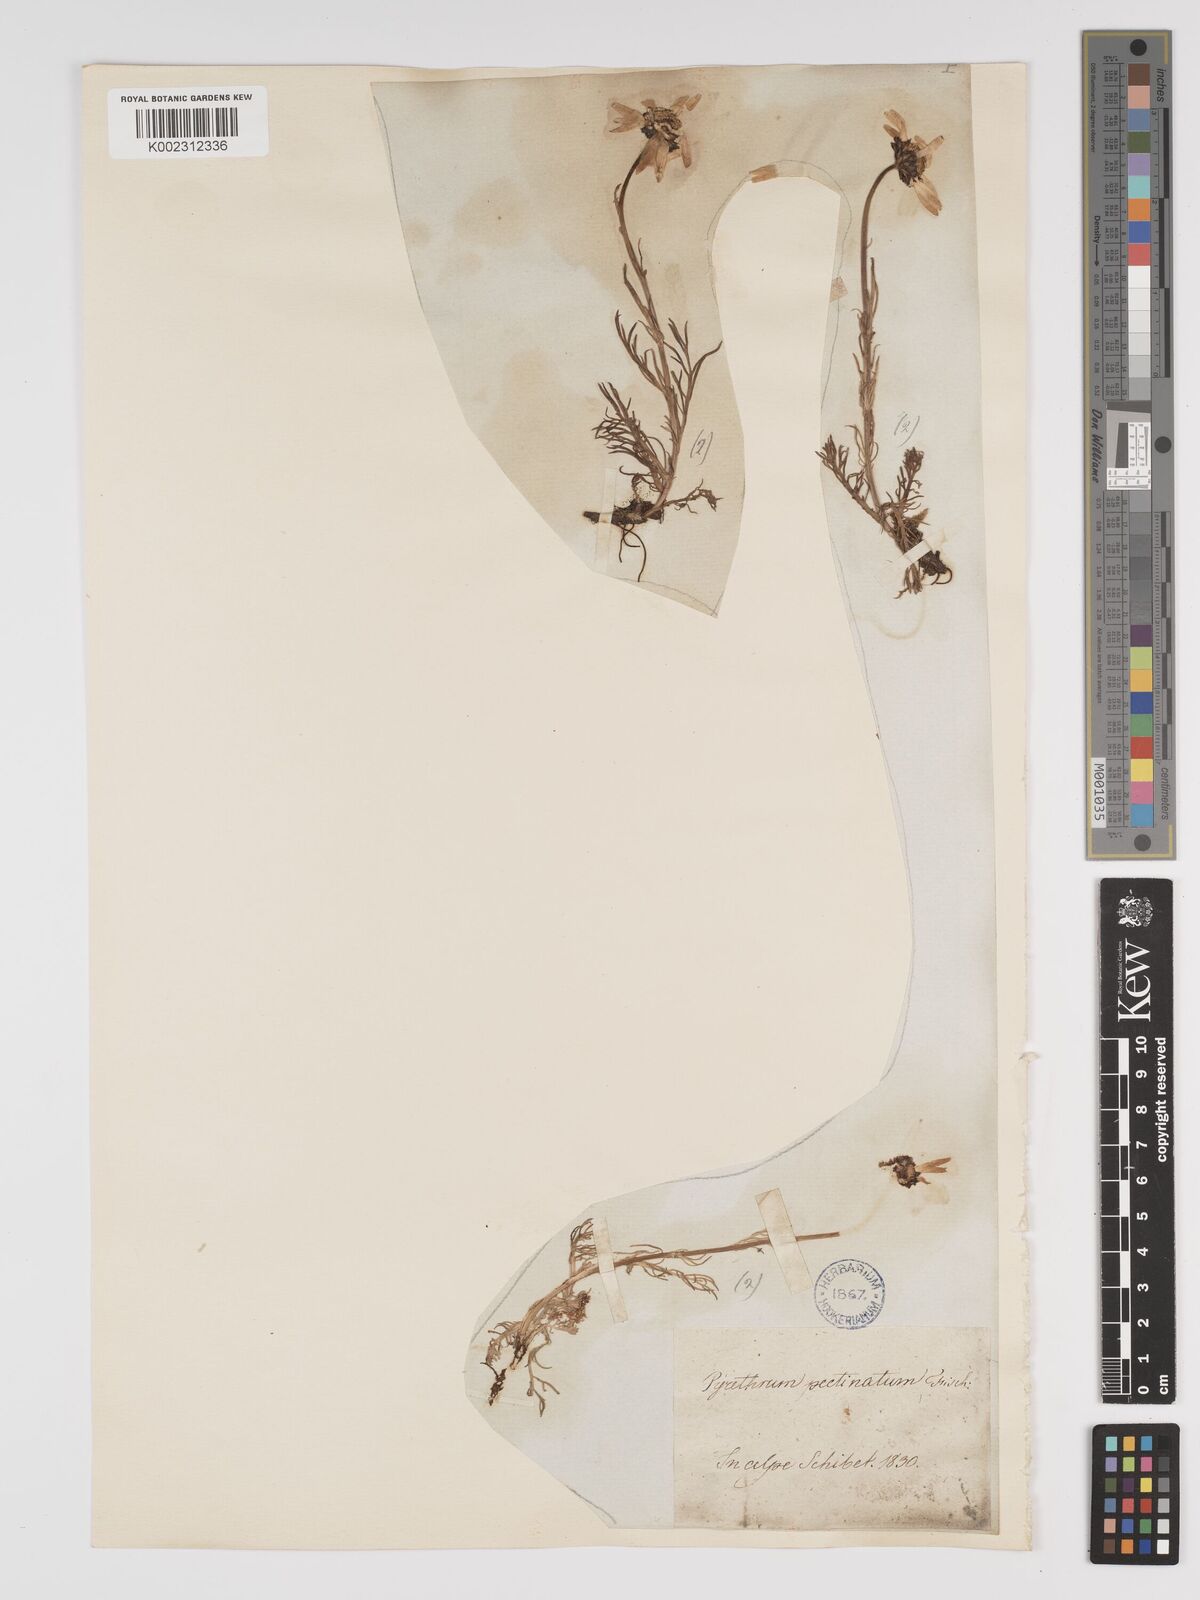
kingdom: Plantae
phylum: Tracheophyta
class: Magnoliopsida
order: Asterales
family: Asteraceae
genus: Tanacetum
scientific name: Tanacetum pulchellum
